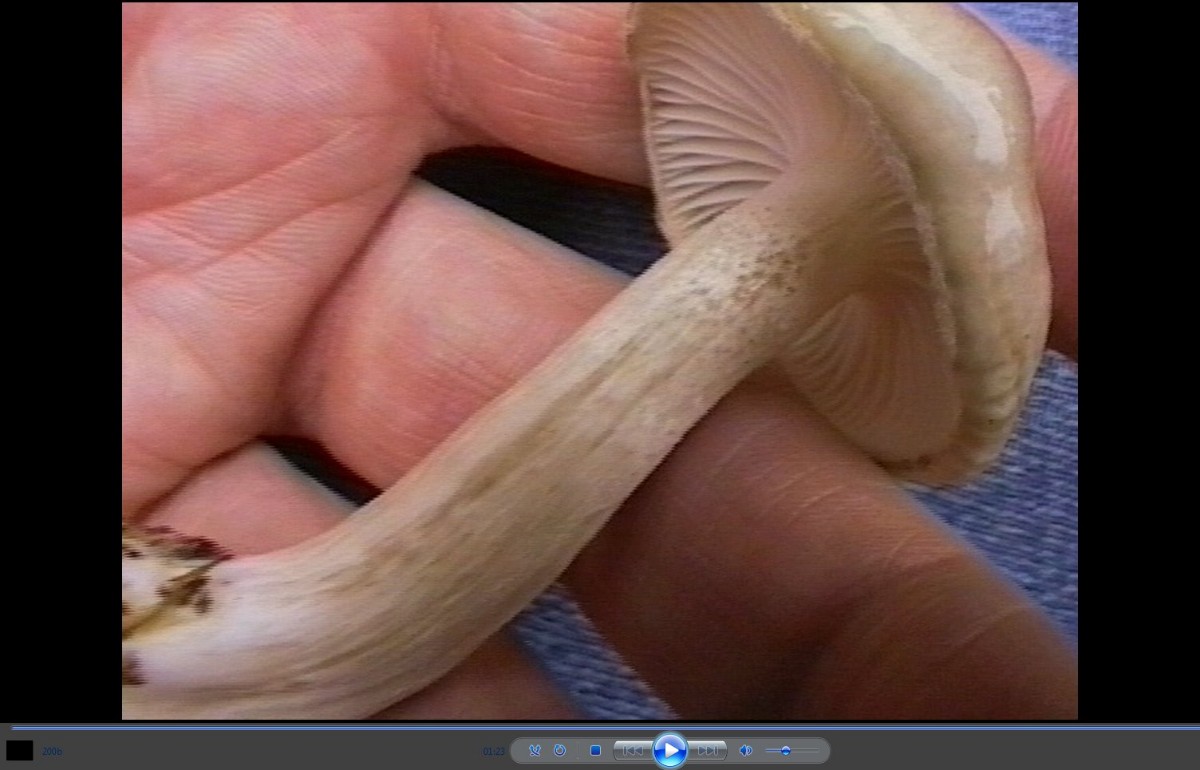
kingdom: Fungi
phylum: Basidiomycota
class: Agaricomycetes
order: Agaricales
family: Hygrophoraceae
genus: Hygrophorus
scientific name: Hygrophorus agathosmus
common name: vellugtende sneglehat
